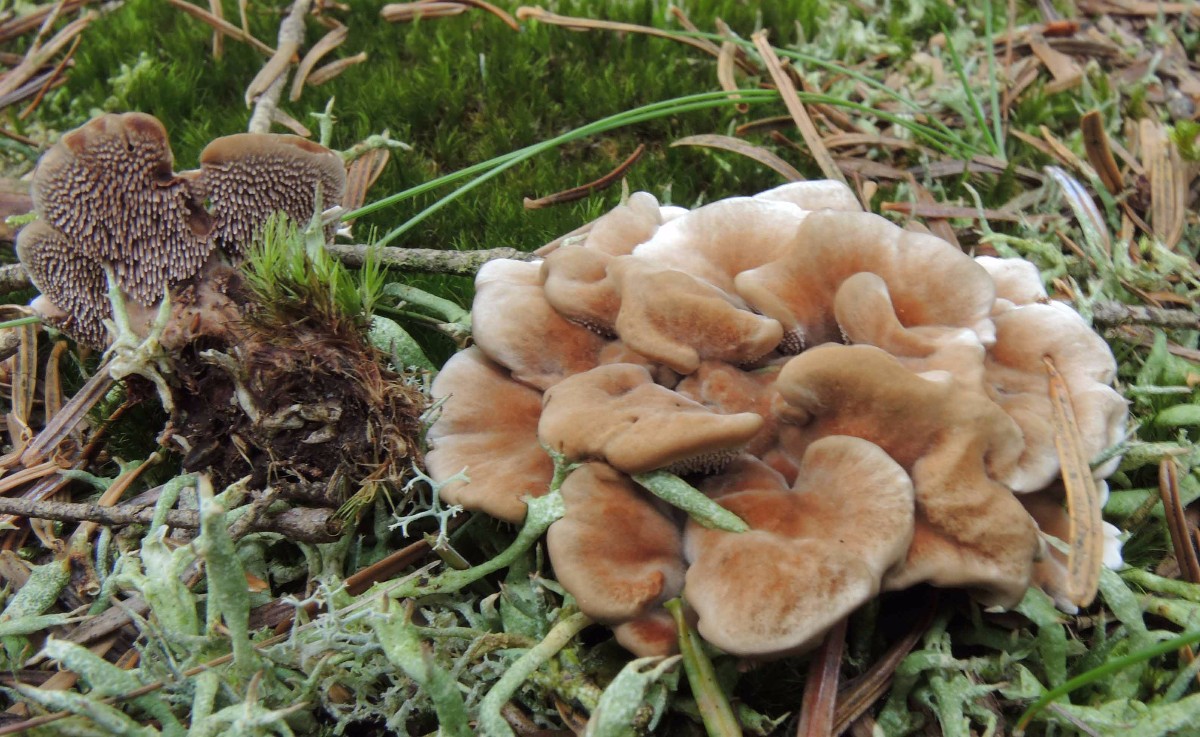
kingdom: Fungi
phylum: Basidiomycota
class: Agaricomycetes
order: Thelephorales
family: Bankeraceae
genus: Hydnellum
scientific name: Hydnellum cumulatum
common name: Rosette tooth
